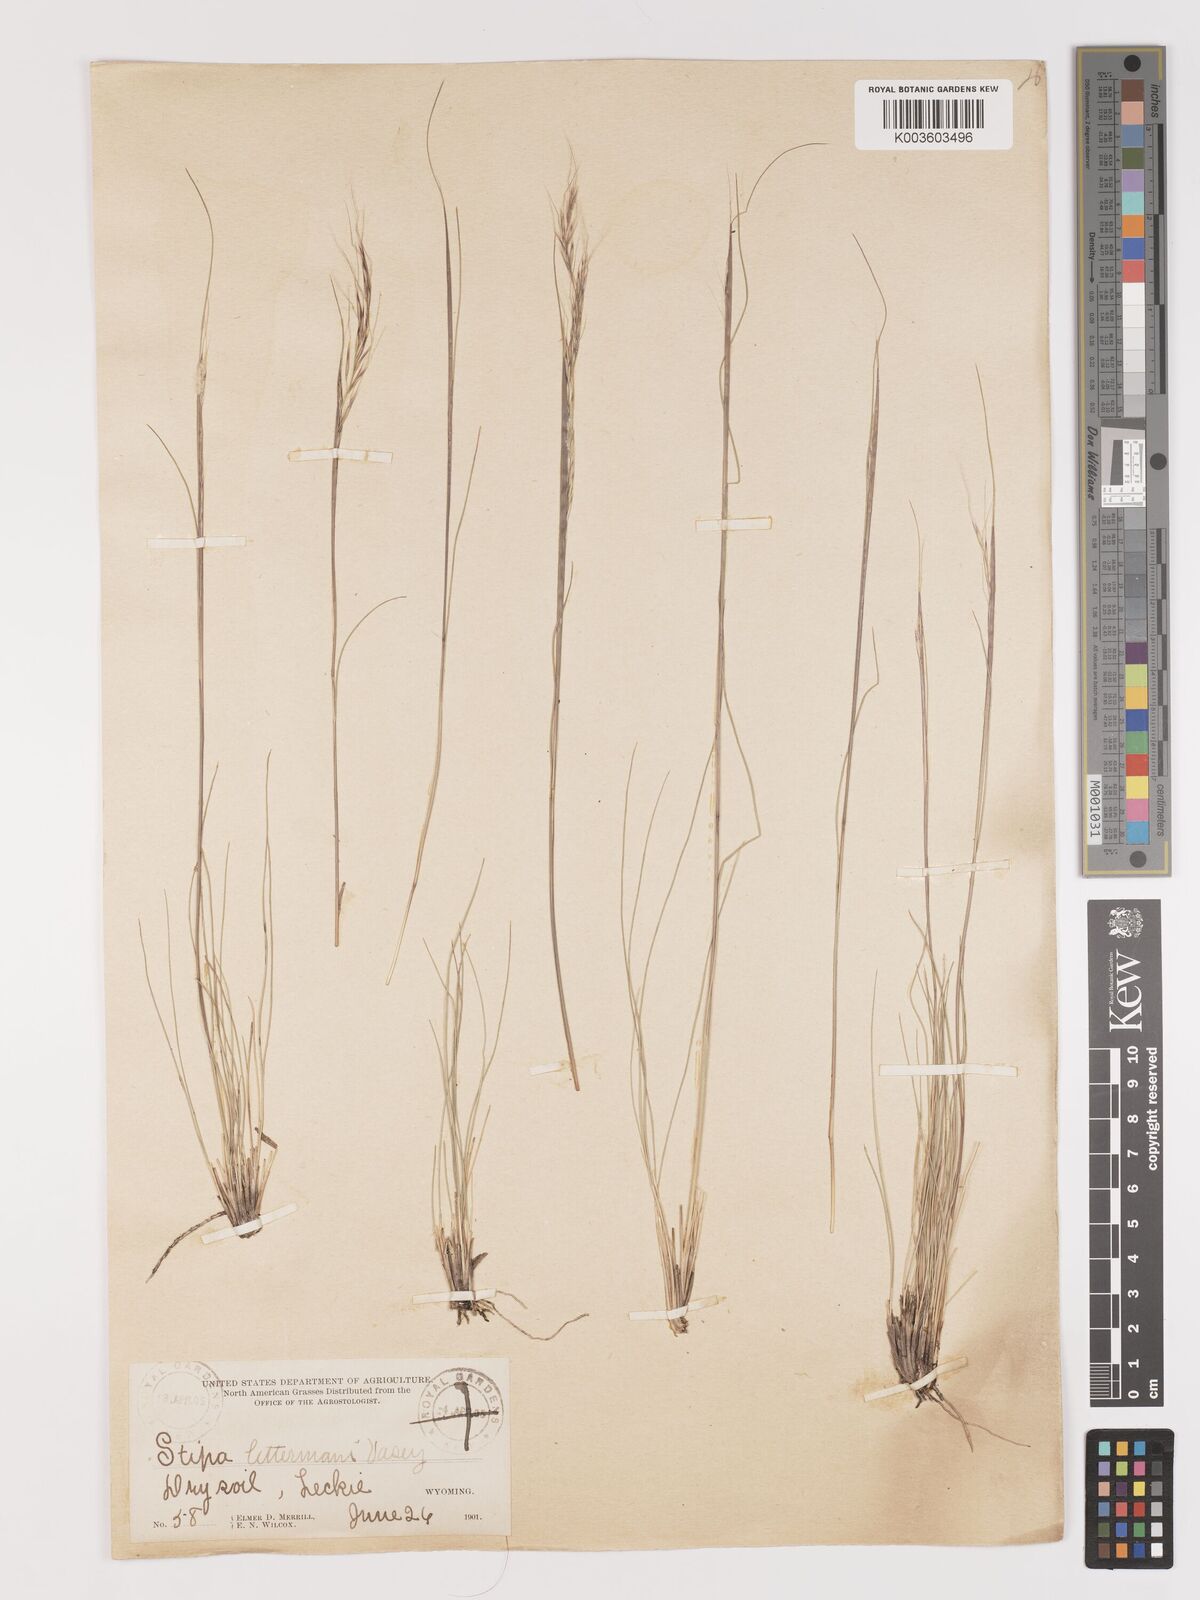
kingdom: Plantae
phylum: Tracheophyta
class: Liliopsida
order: Poales
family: Poaceae
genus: Eriocoma
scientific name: Eriocoma lettermanii
